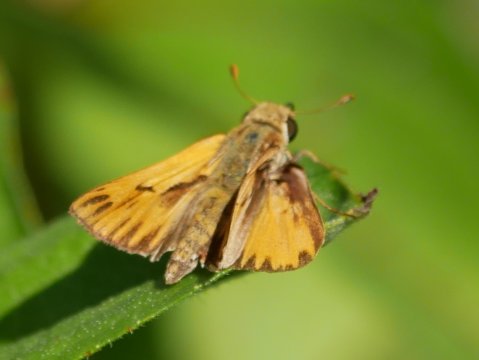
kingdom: Animalia
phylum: Arthropoda
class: Insecta
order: Lepidoptera
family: Hesperiidae
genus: Hylephila
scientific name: Hylephila phyleus
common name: Fiery Skipper
